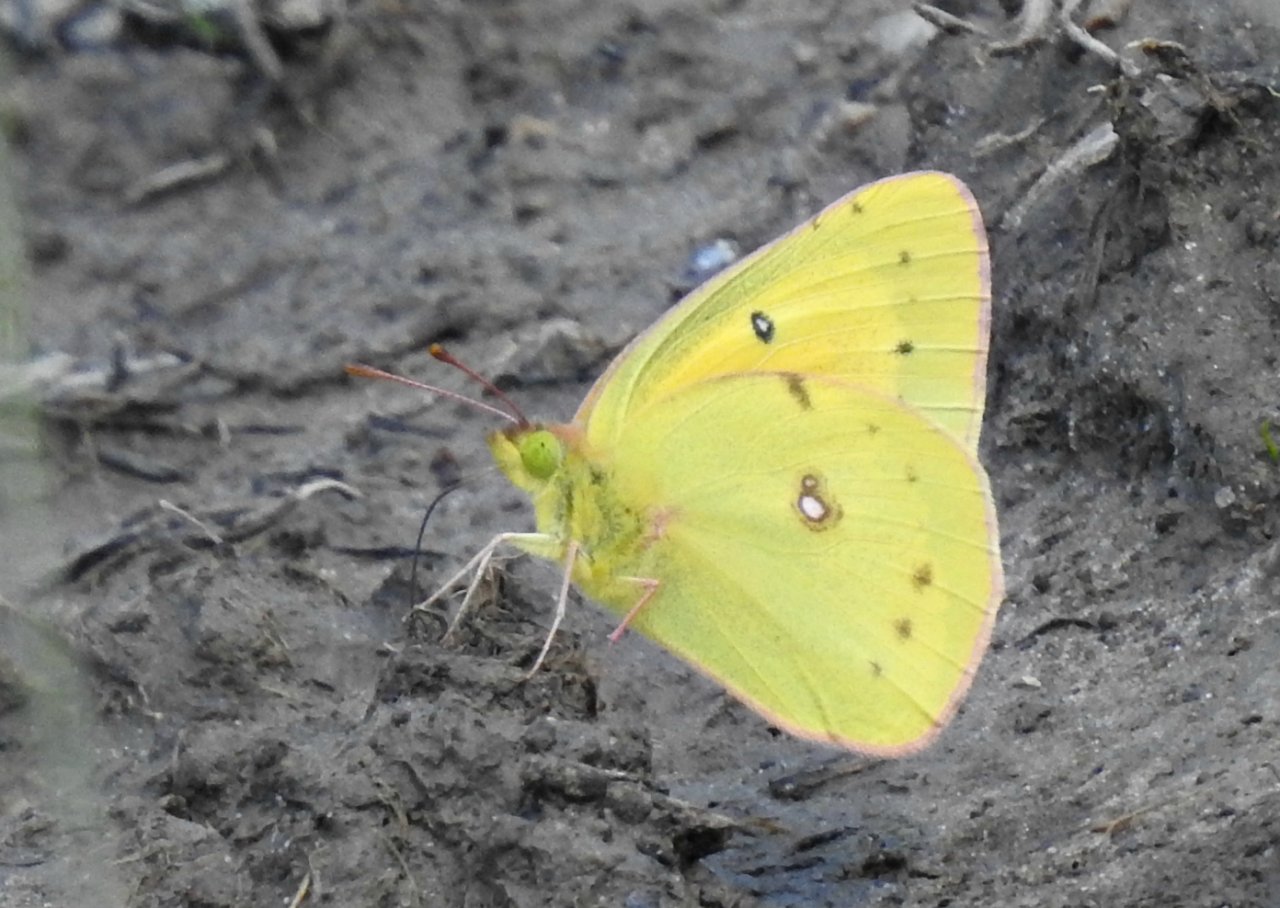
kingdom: Animalia
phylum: Arthropoda
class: Insecta
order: Lepidoptera
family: Pieridae
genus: Colias
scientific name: Colias eurytheme
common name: Orange Sulphur
